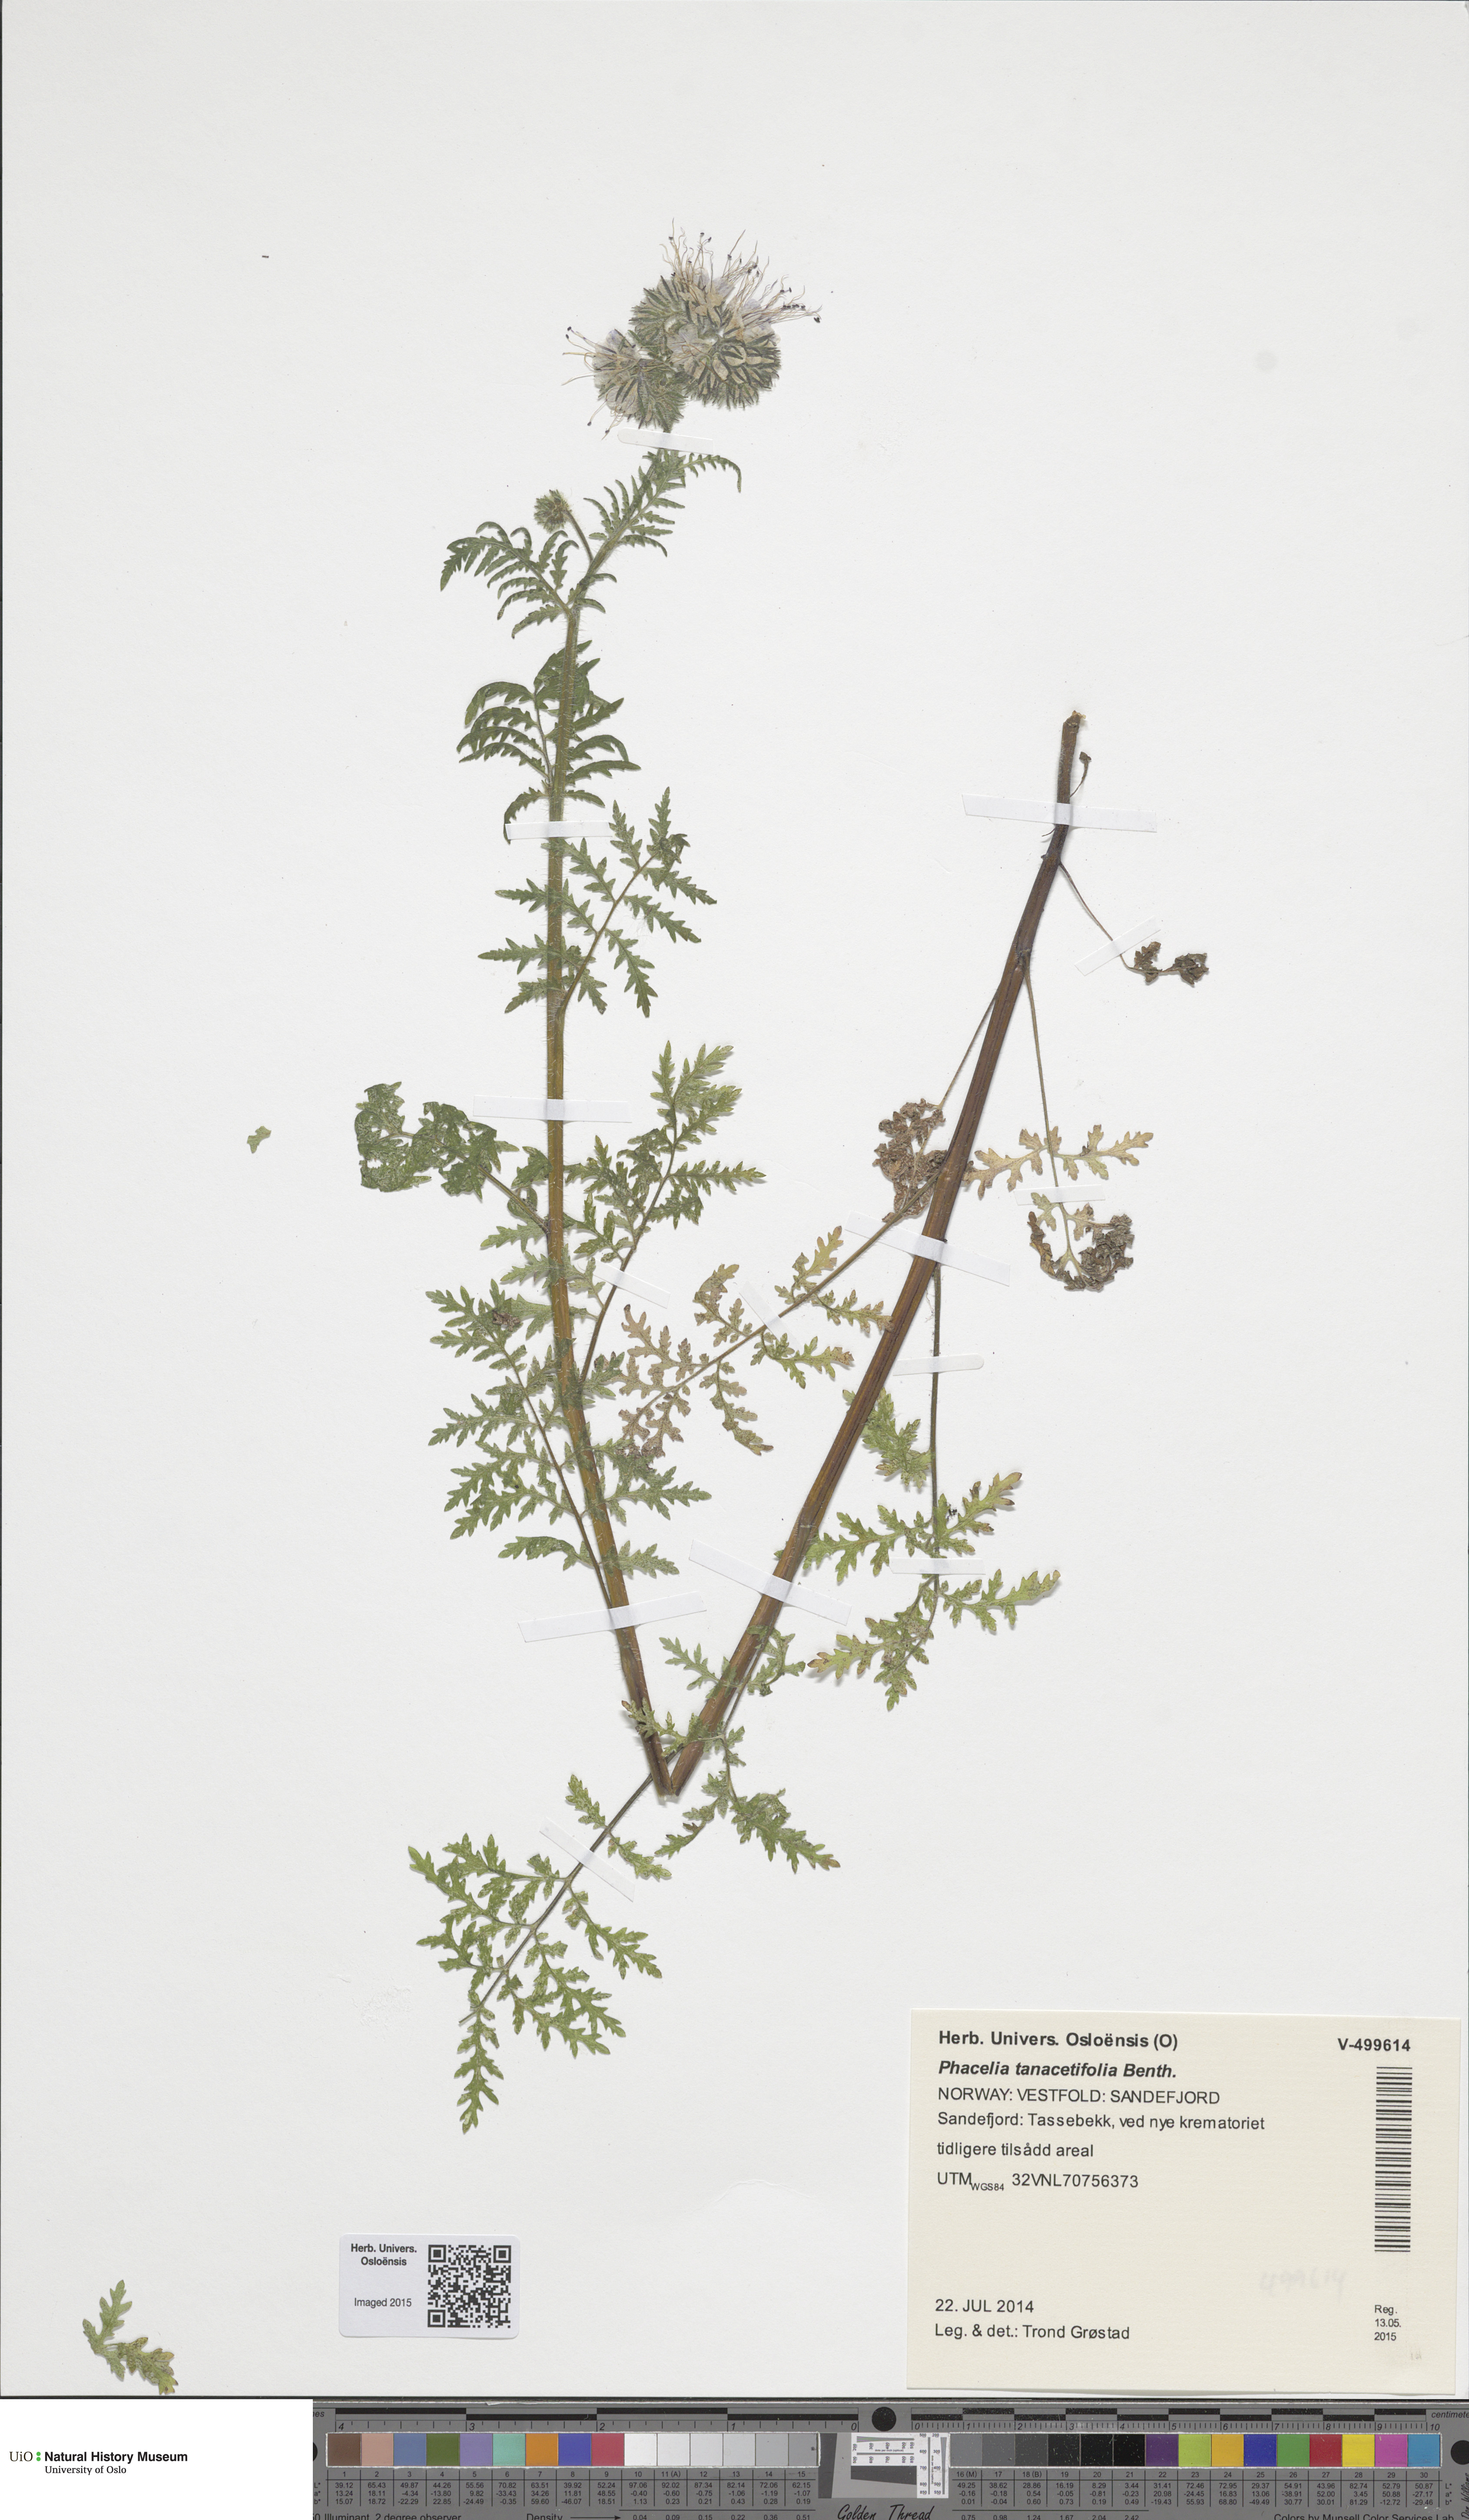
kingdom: Plantae
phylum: Tracheophyta
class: Magnoliopsida
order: Boraginales
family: Hydrophyllaceae
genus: Phacelia
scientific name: Phacelia tanacetifolia
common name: Phacelia
